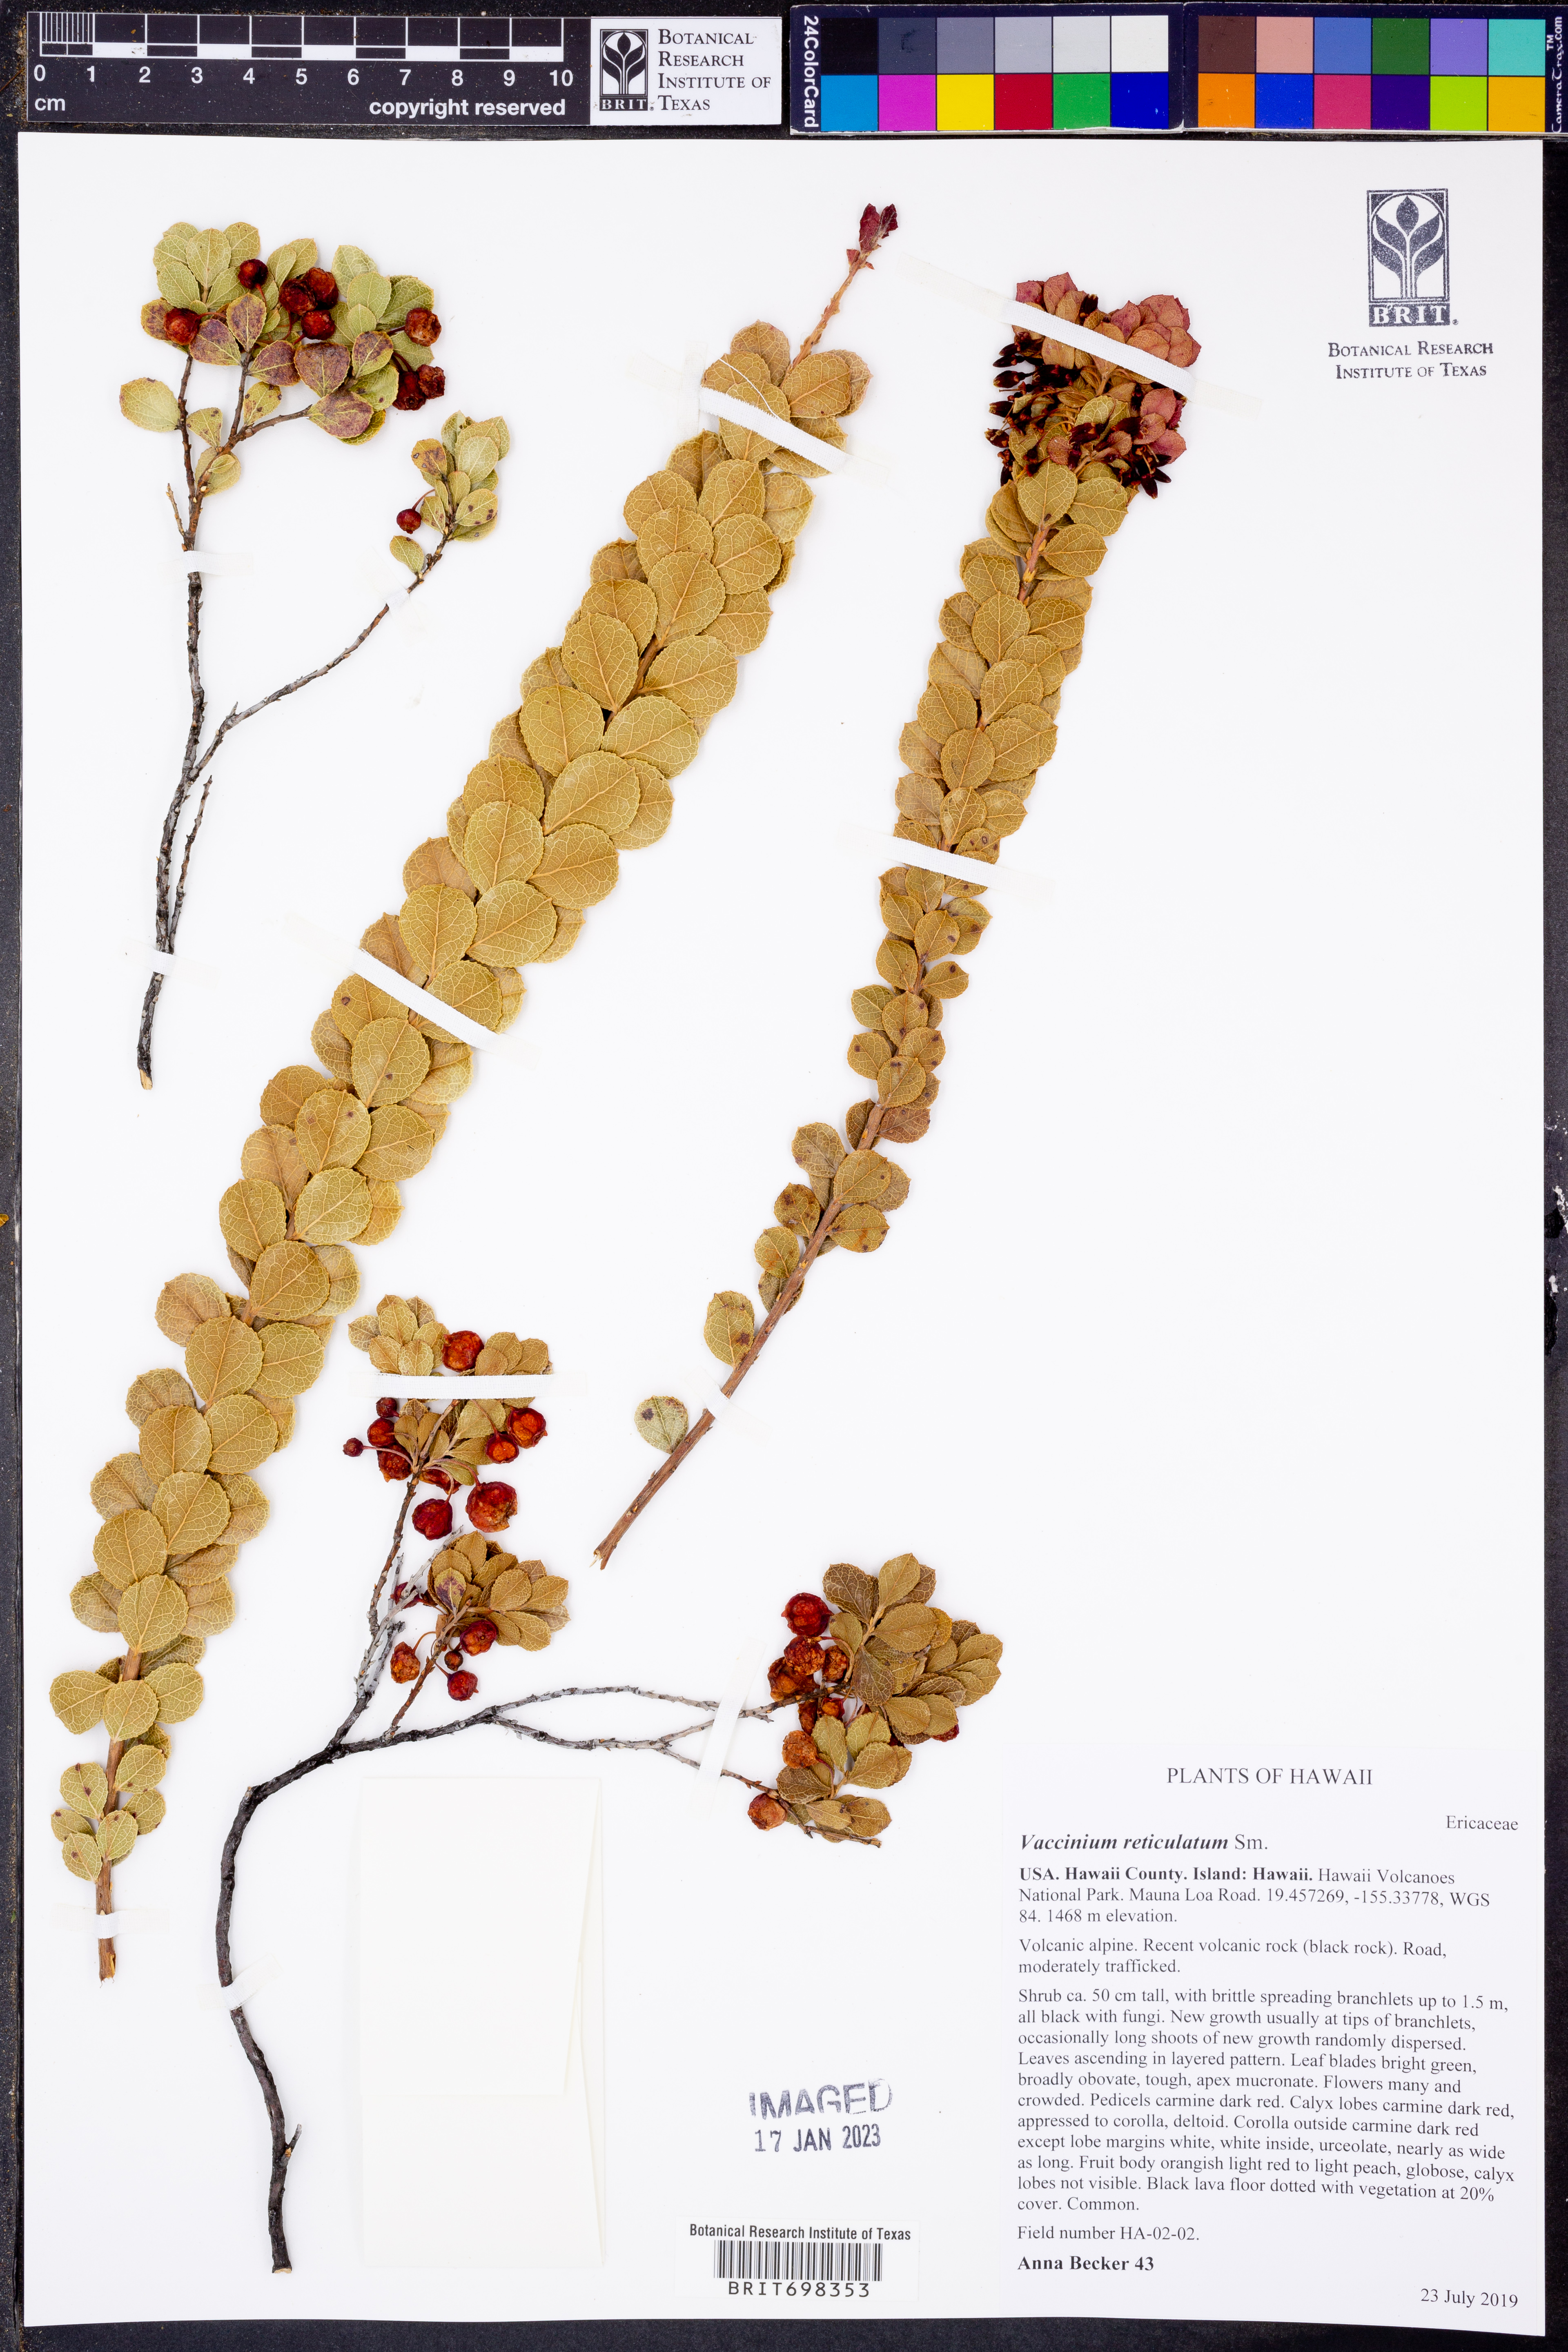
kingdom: Plantae
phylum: Tracheophyta
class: Magnoliopsida
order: Ericales
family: Ericaceae
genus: Vaccinium
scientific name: Vaccinium reticulatum
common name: Ohelo
